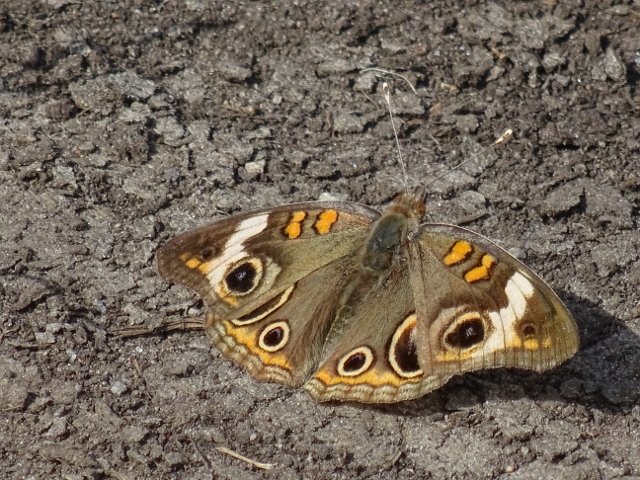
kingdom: Animalia
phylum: Arthropoda
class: Insecta
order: Lepidoptera
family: Nymphalidae
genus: Junonia
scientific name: Junonia coenia
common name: Common Buckeye
